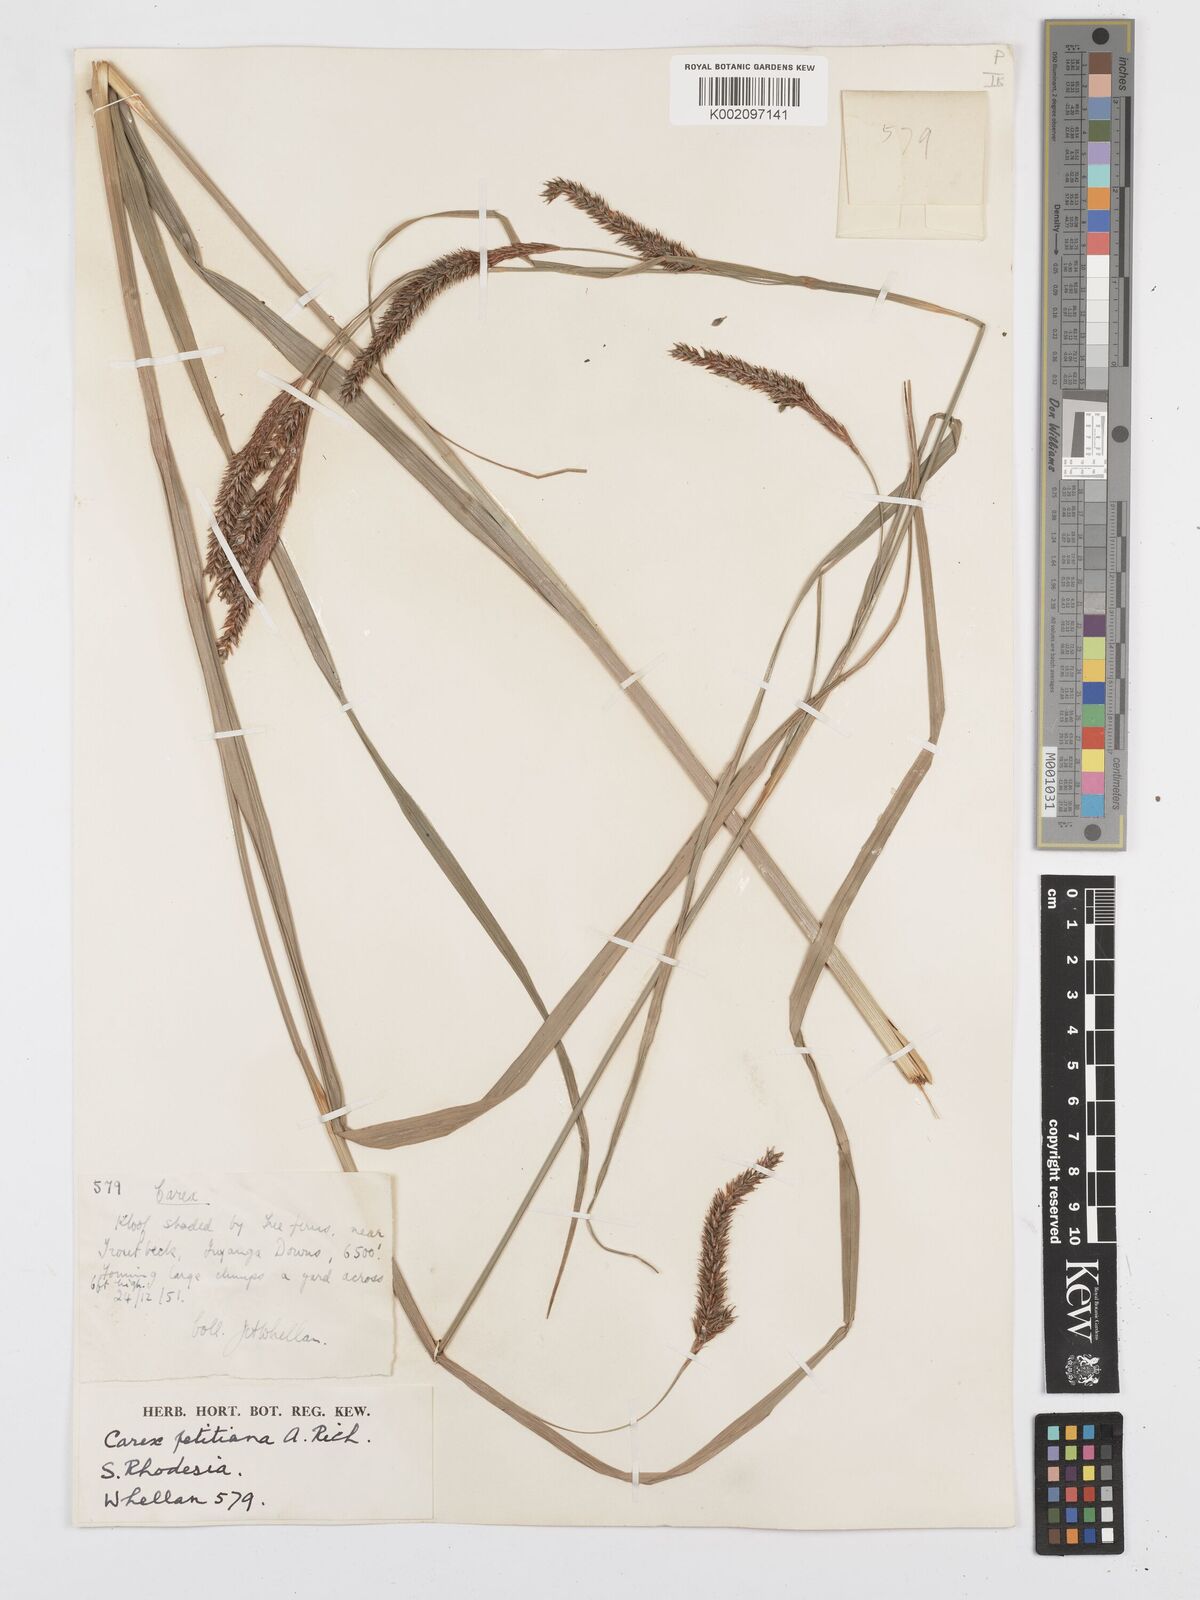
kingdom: Plantae
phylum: Tracheophyta
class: Liliopsida
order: Poales
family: Cyperaceae
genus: Carex
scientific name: Carex petitiana
